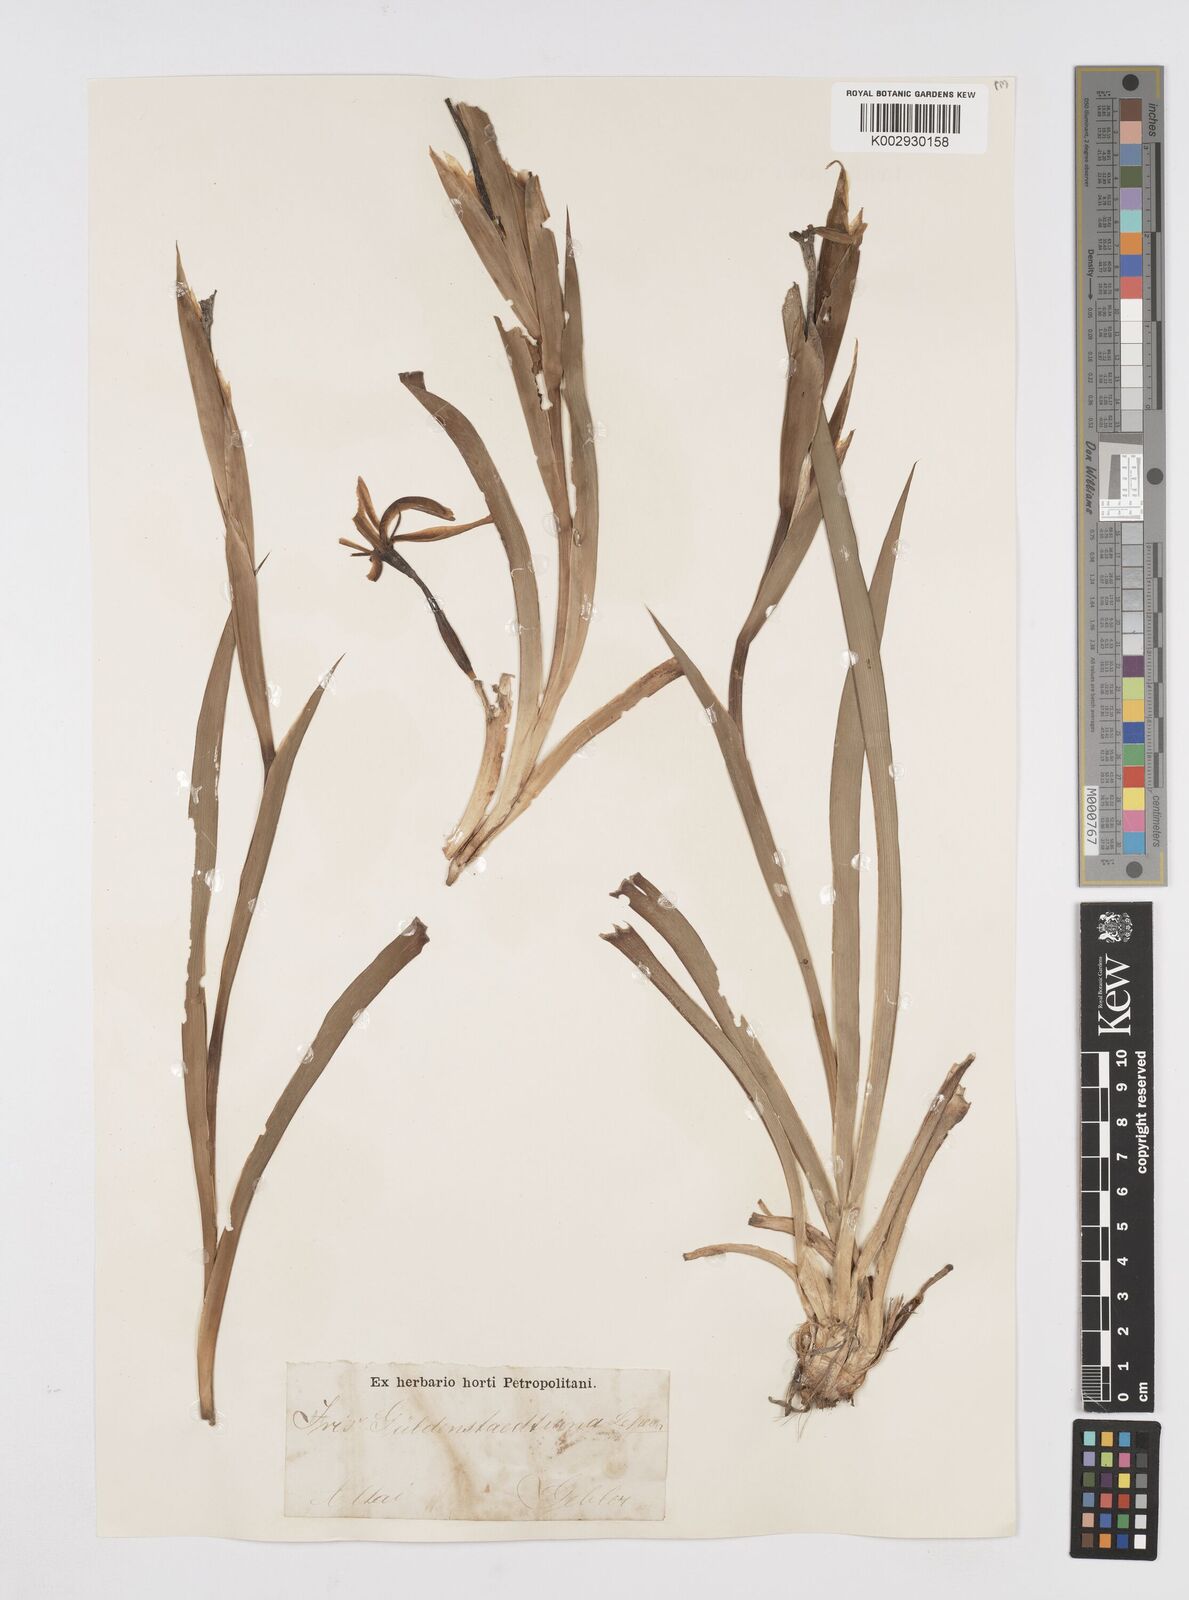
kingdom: Plantae
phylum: Tracheophyta
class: Liliopsida
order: Asparagales
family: Iridaceae
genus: Iris
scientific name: Iris halophila
